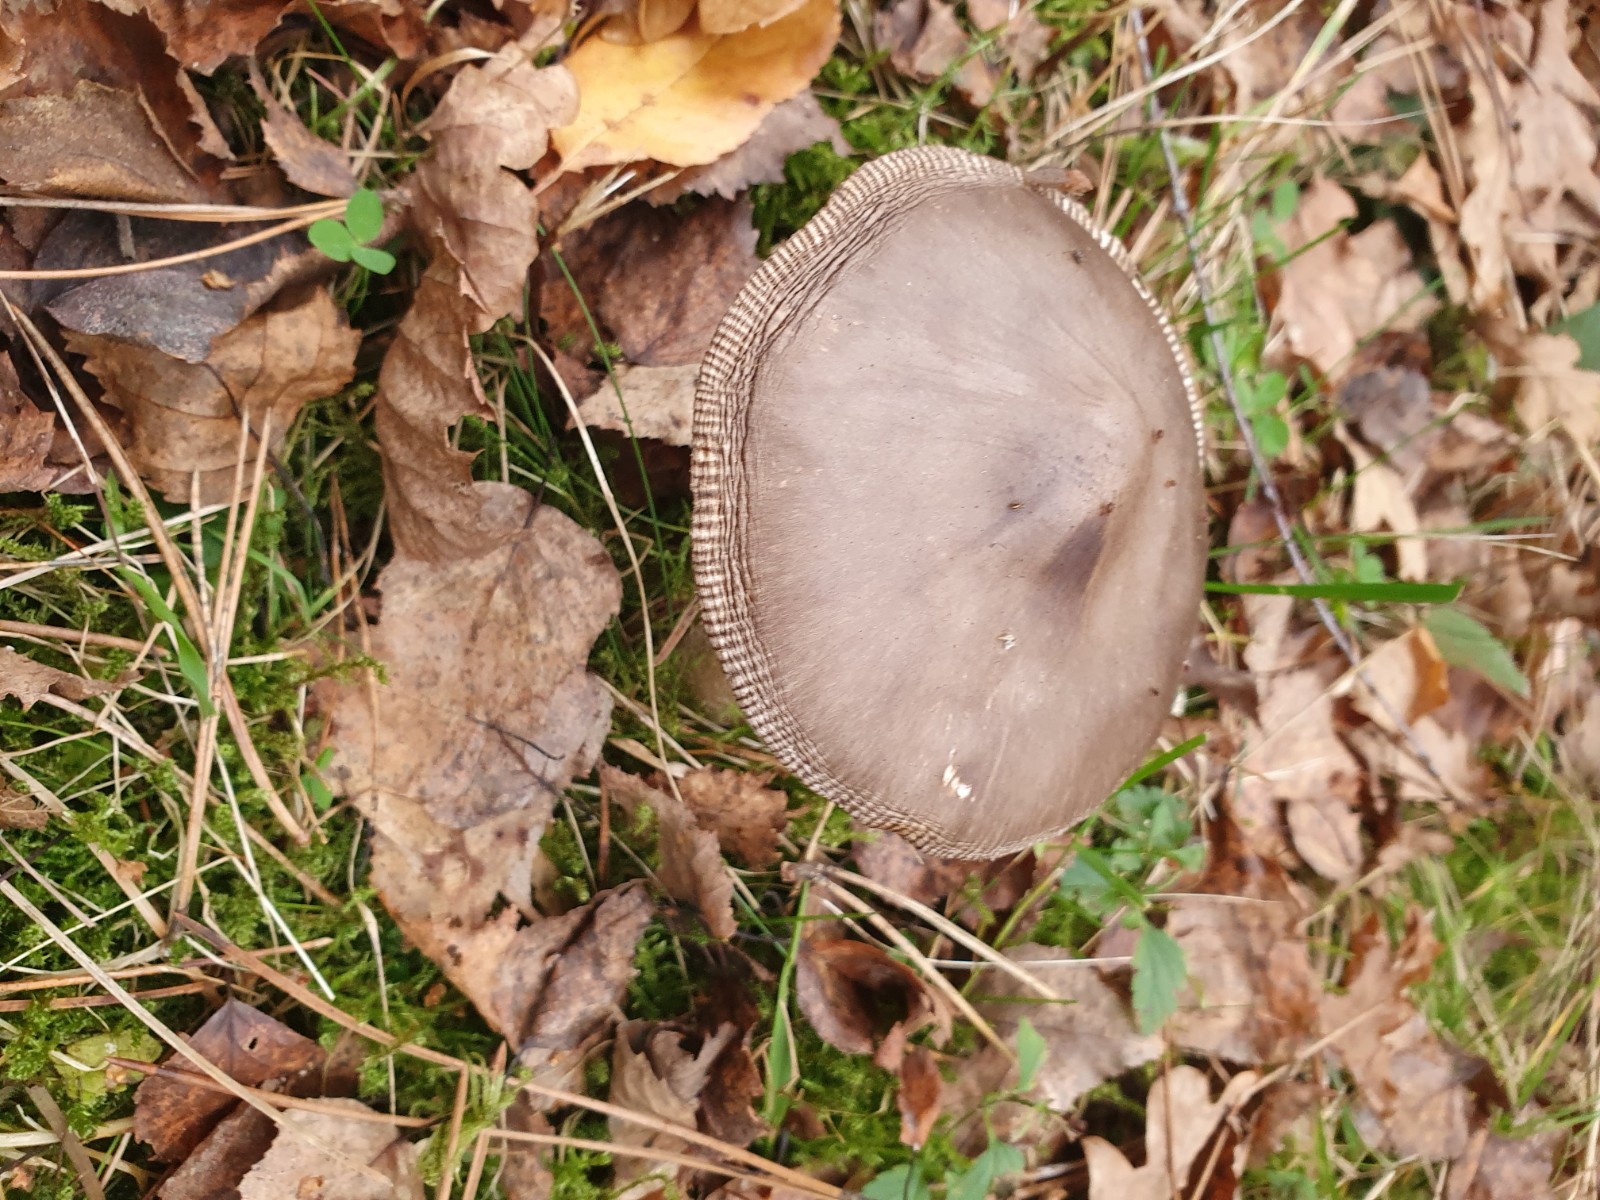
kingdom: Fungi
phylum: Basidiomycota
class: Agaricomycetes
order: Agaricales
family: Amanitaceae
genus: Amanita
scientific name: Amanita
